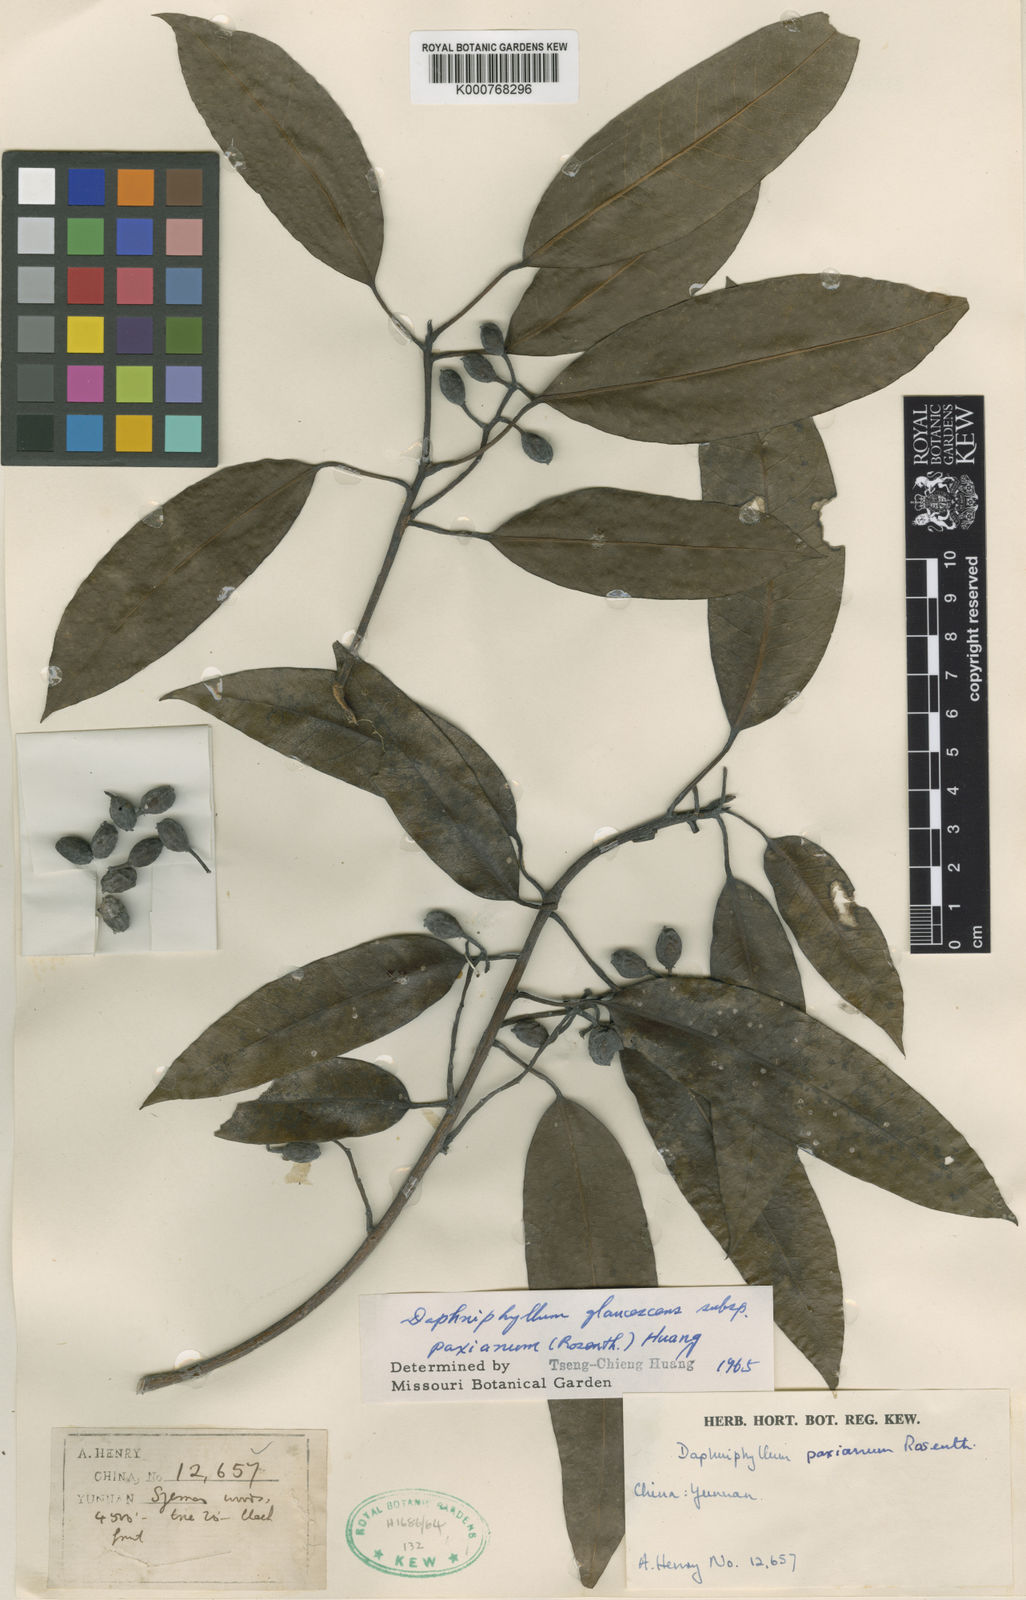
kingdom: Plantae
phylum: Tracheophyta
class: Magnoliopsida
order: Saxifragales
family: Daphniphyllaceae
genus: Daphniphyllum
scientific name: Daphniphyllum paxianum
